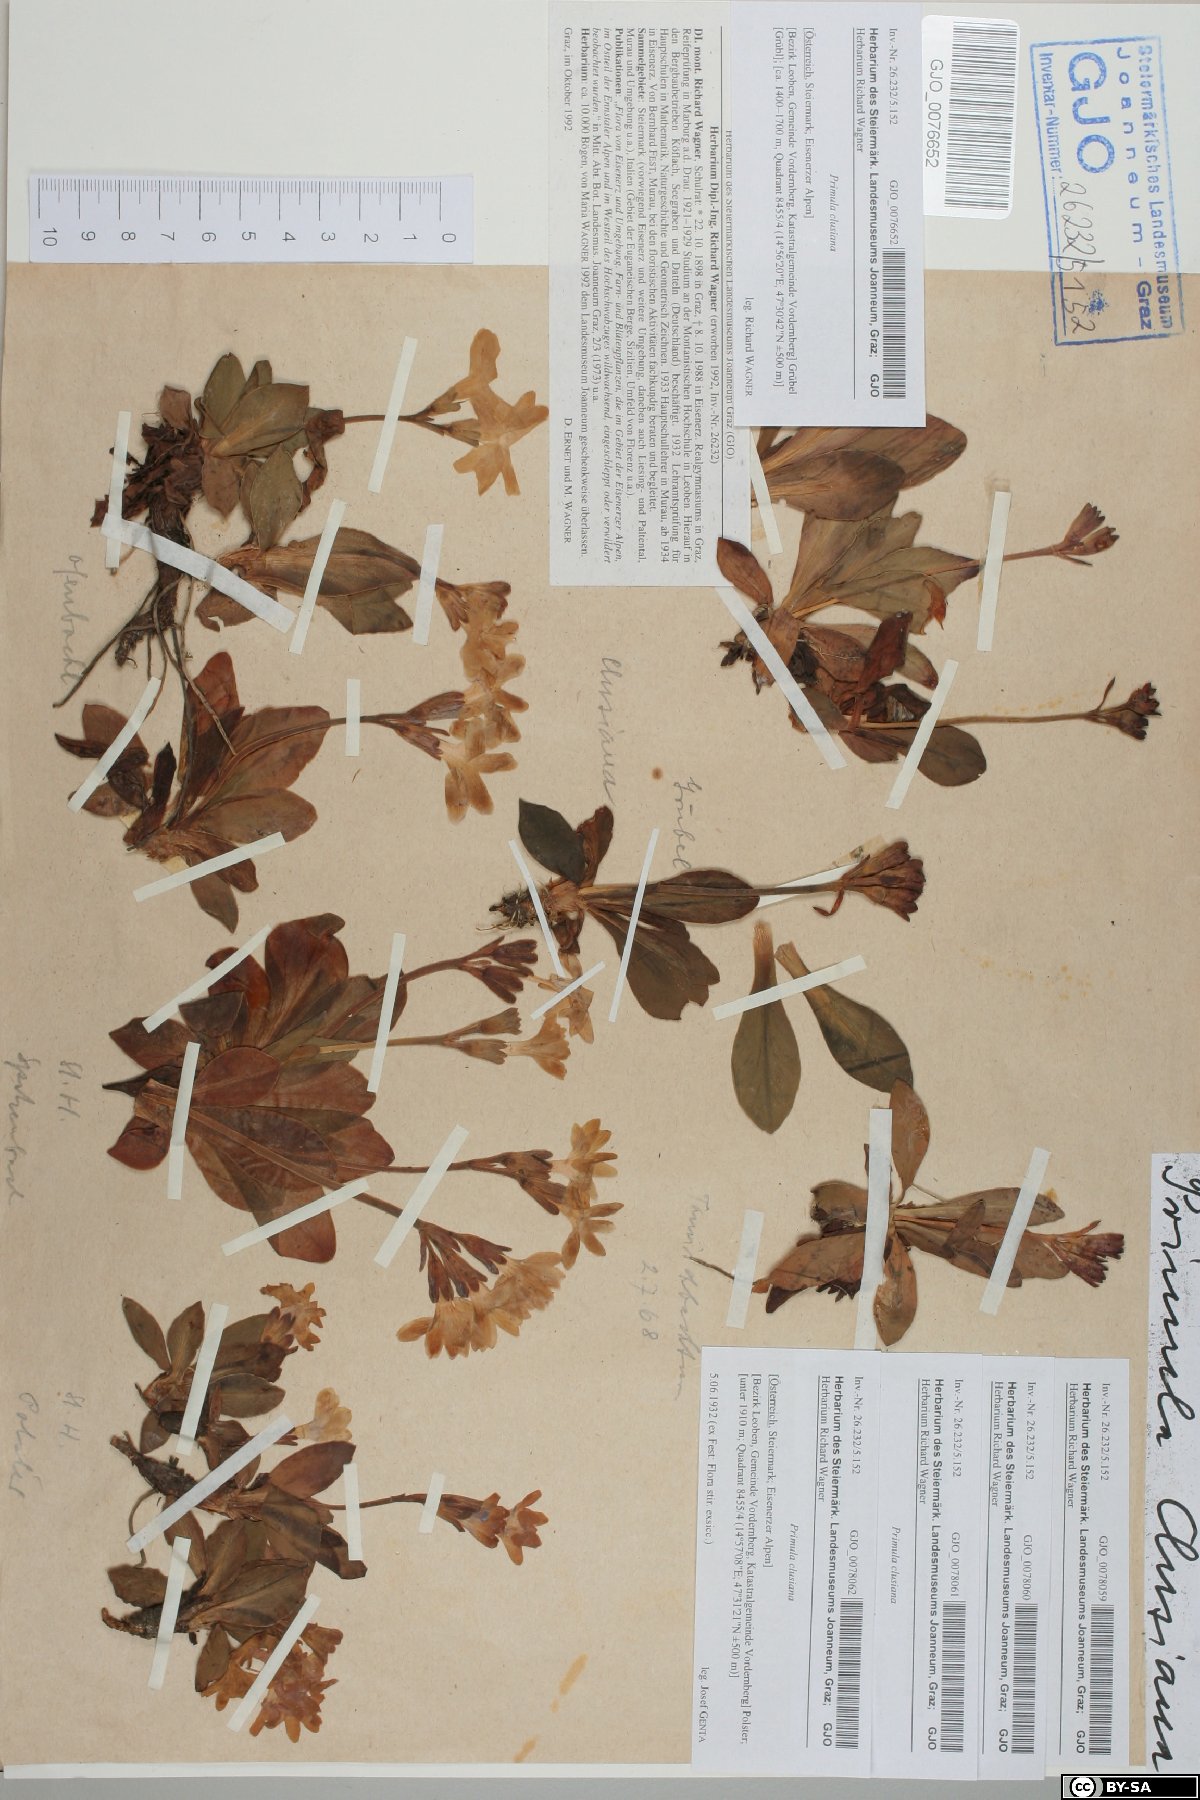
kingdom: Plantae
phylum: Tracheophyta
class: Magnoliopsida
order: Ericales
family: Primulaceae
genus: Primula
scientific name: Primula clusiana
